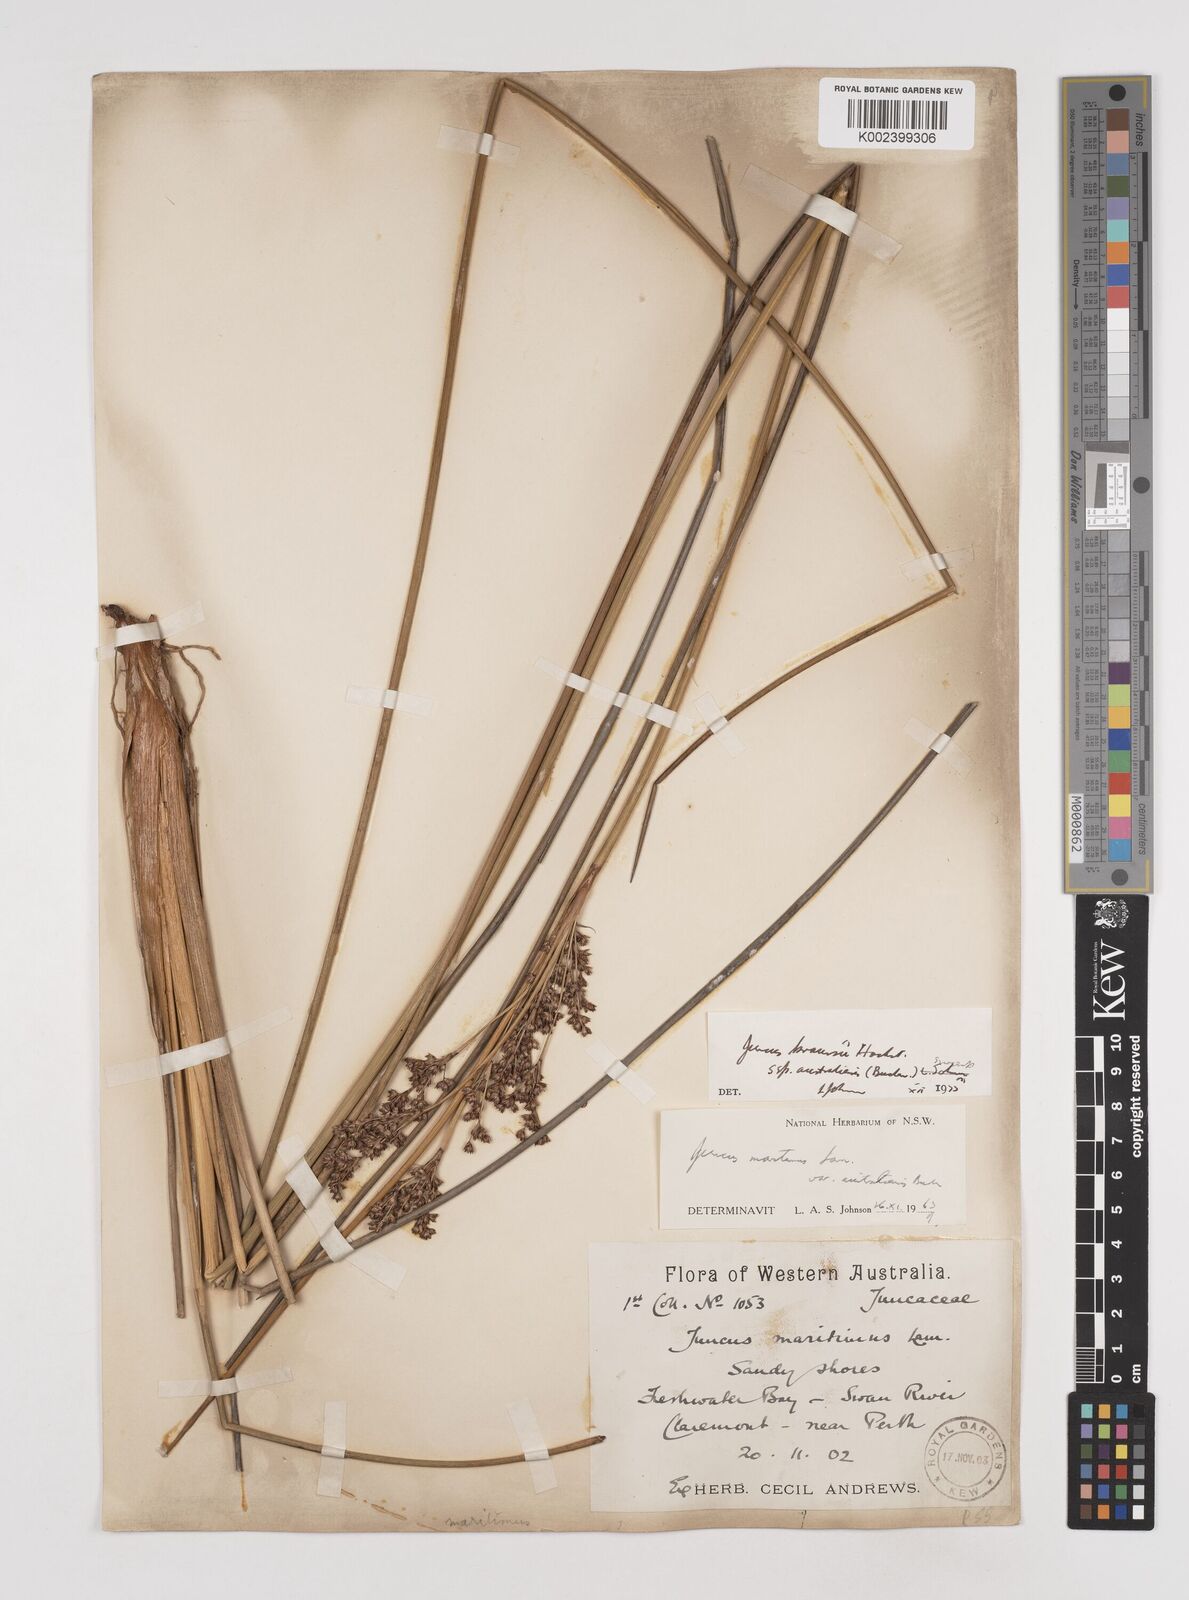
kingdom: Plantae
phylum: Tracheophyta
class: Liliopsida
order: Poales
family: Juncaceae
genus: Juncus
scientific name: Juncus kraussii
